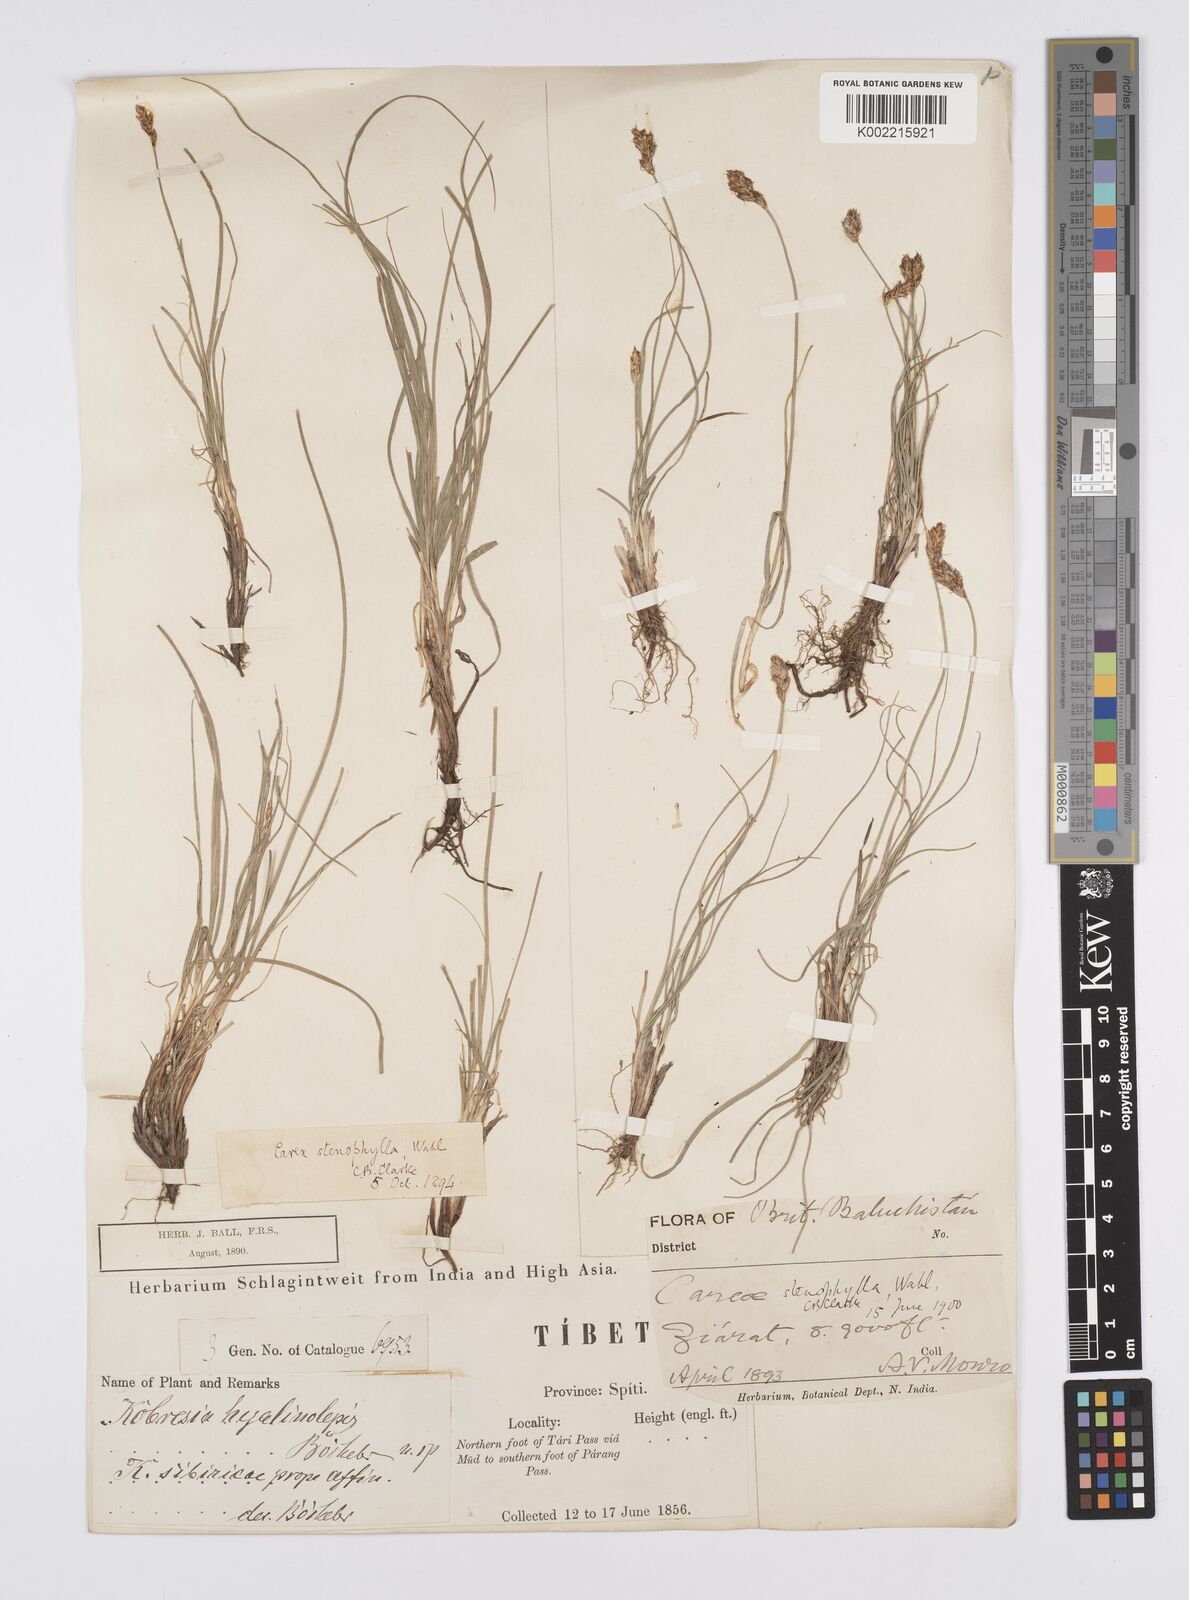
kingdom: Plantae
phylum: Tracheophyta
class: Liliopsida
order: Poales
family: Cyperaceae
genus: Carex
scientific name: Carex stenophylla
